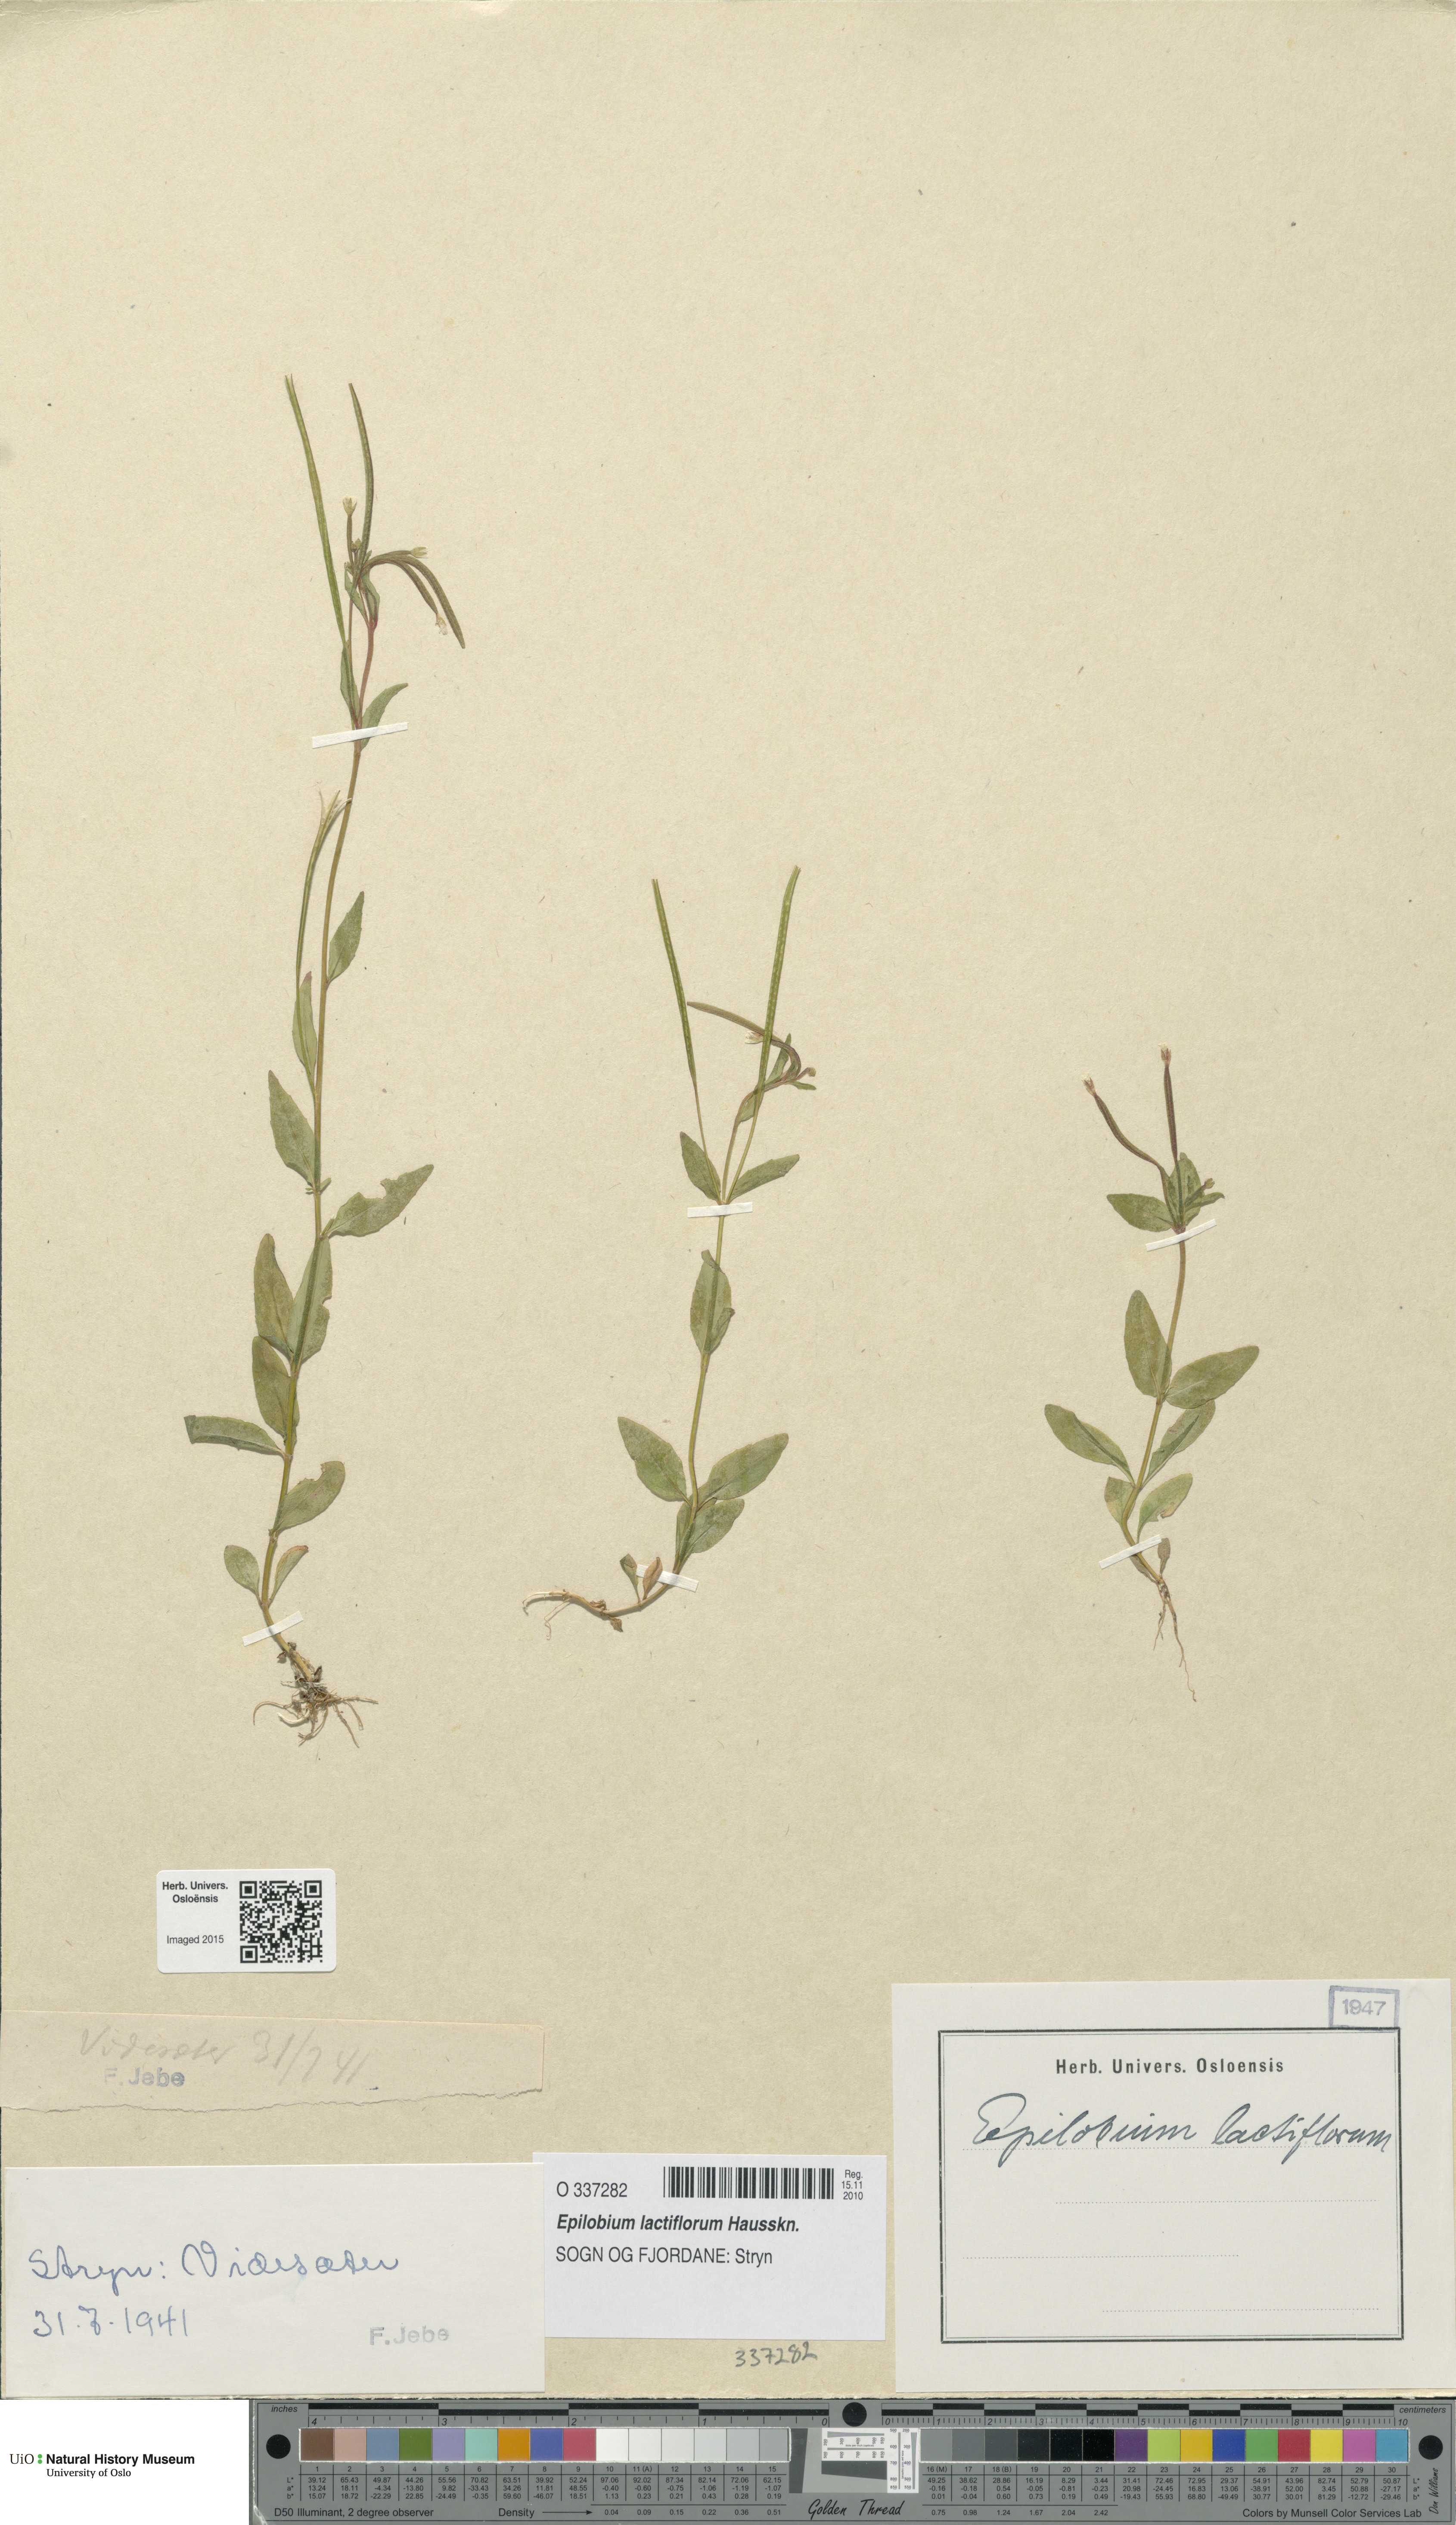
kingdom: Plantae
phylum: Tracheophyta
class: Magnoliopsida
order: Myrtales
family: Onagraceae
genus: Epilobium
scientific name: Epilobium lactiflorum
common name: Milkflower willowherb
